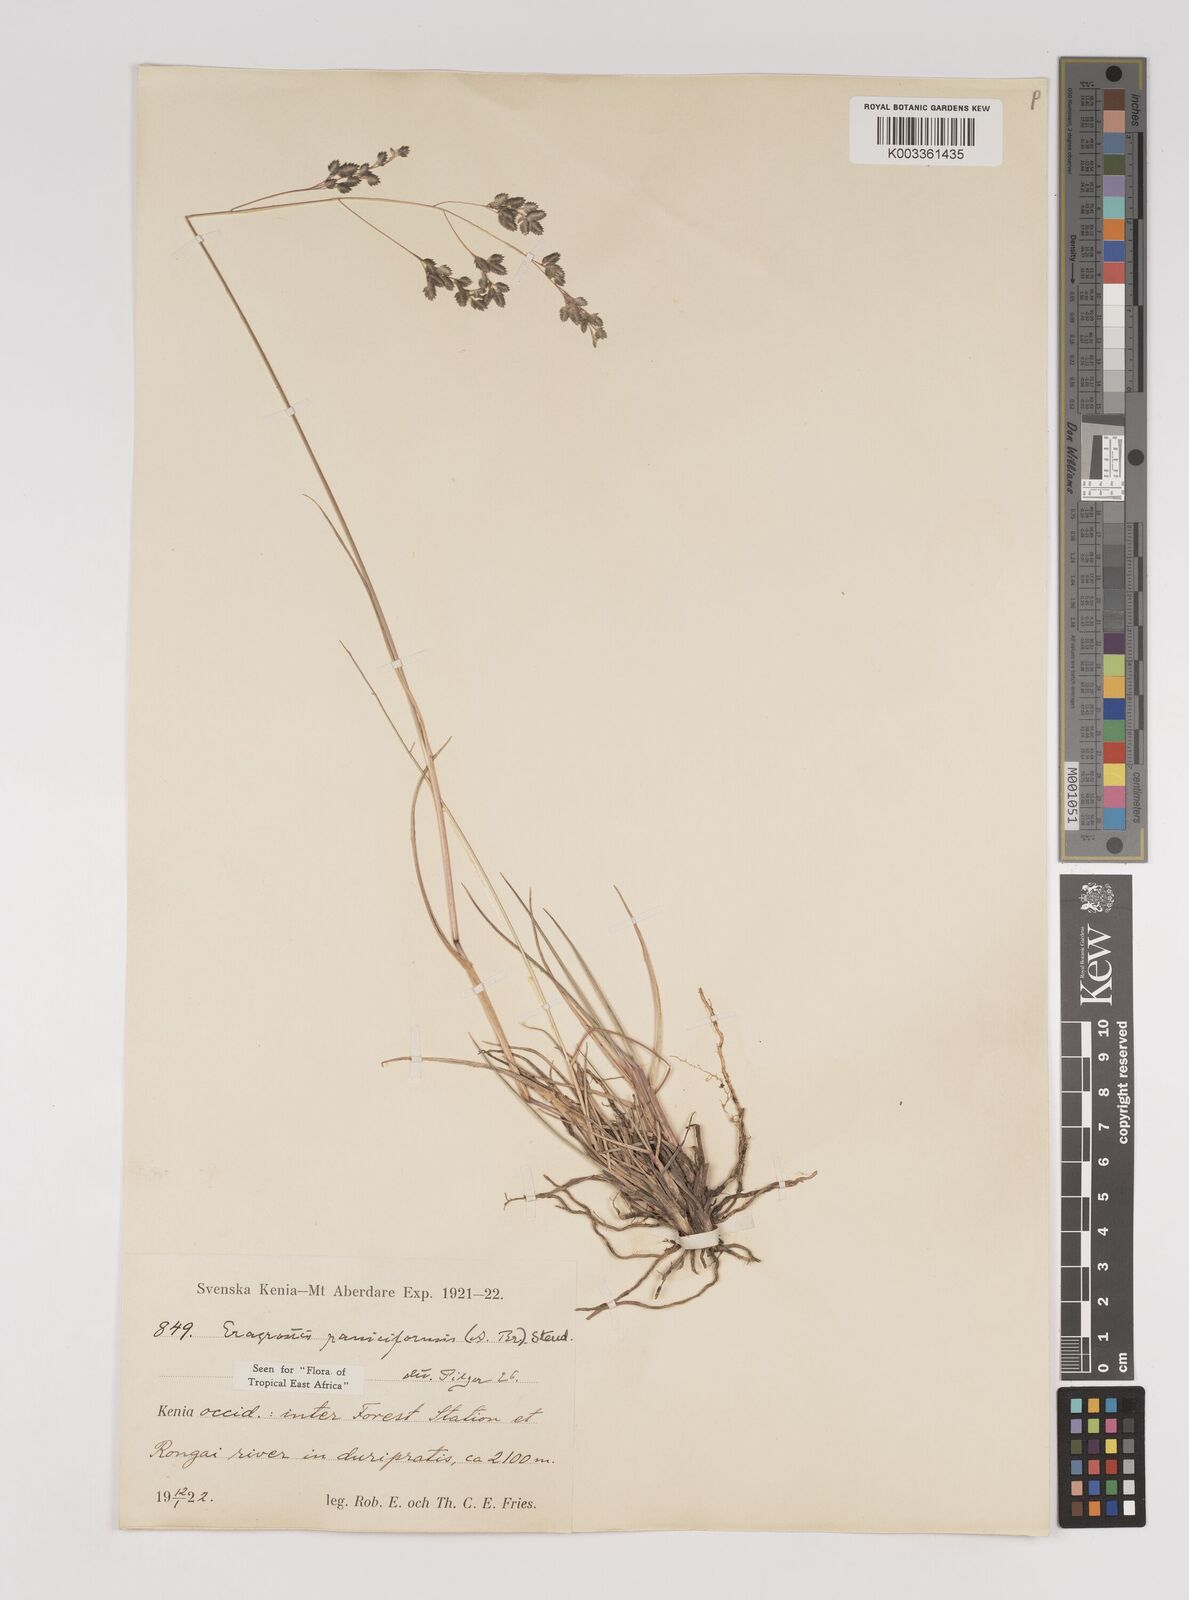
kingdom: Plantae
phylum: Tracheophyta
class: Liliopsida
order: Poales
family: Poaceae
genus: Eragrostis
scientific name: Eragrostis paniciformis
